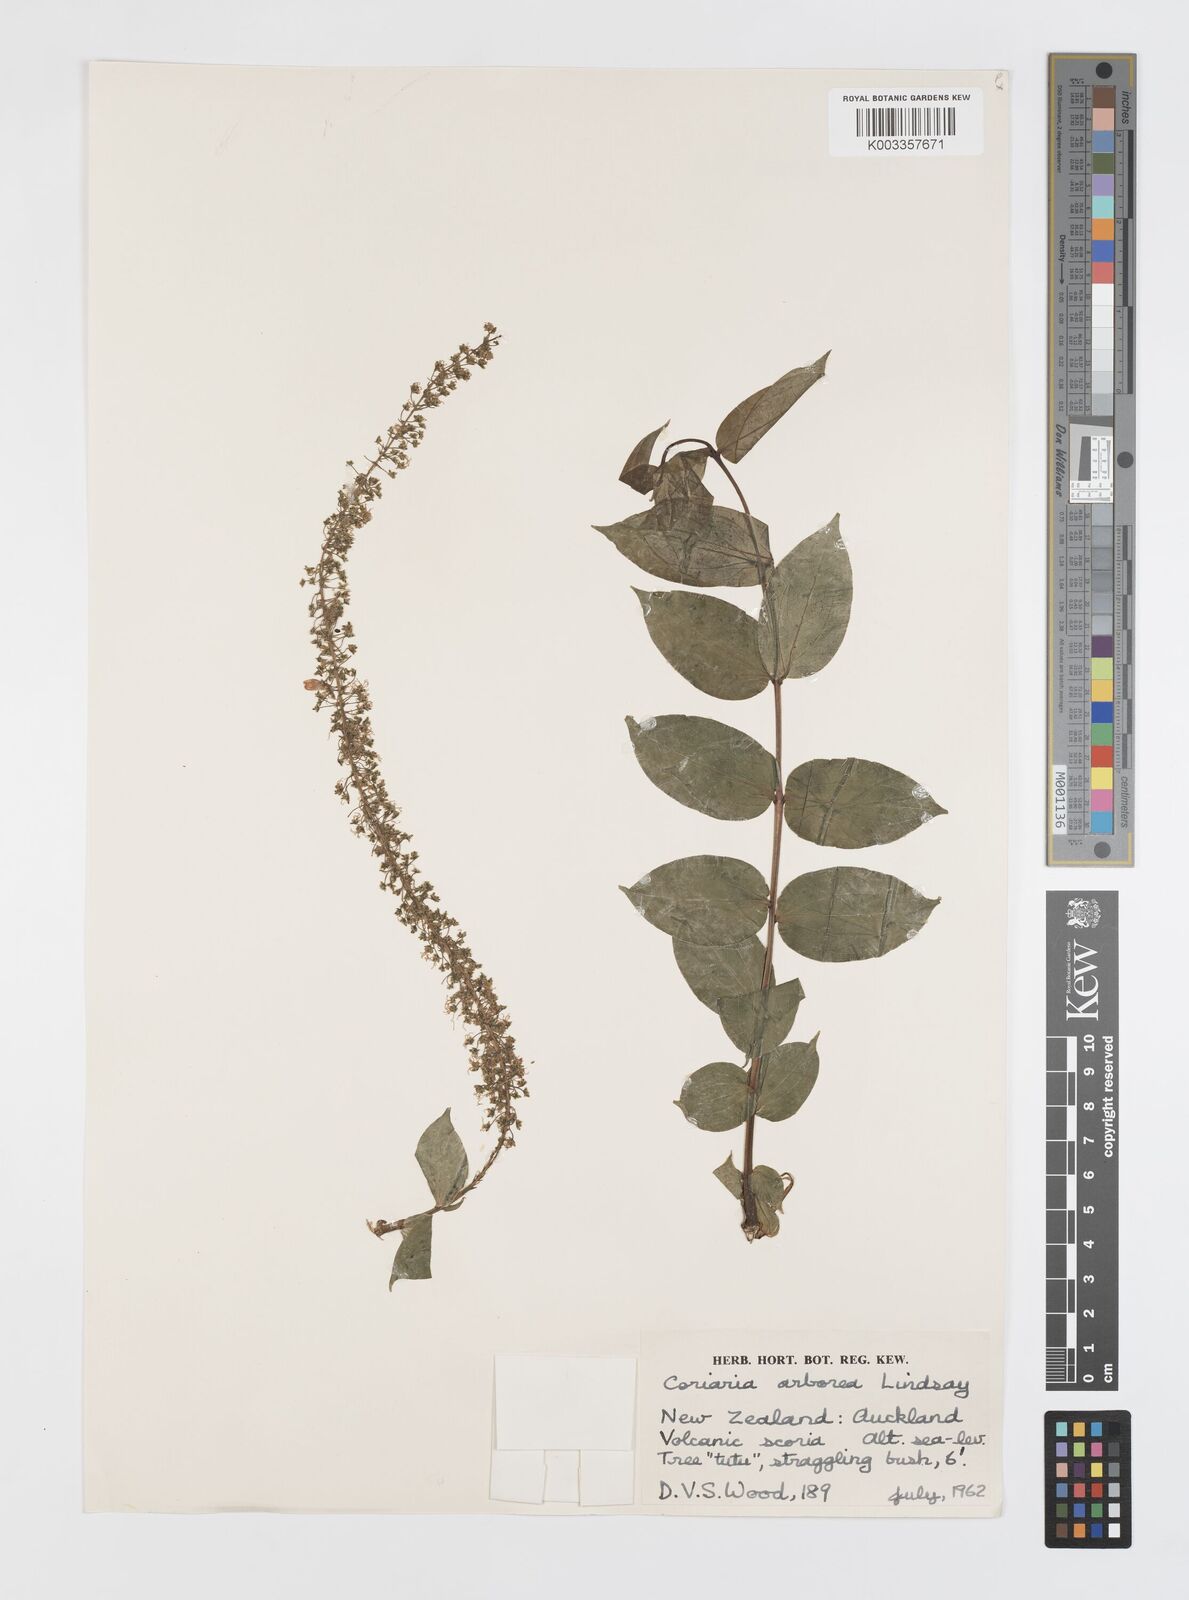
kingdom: Plantae
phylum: Tracheophyta
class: Magnoliopsida
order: Cucurbitales
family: Coriariaceae
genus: Coriaria
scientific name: Coriaria ruscifolia
